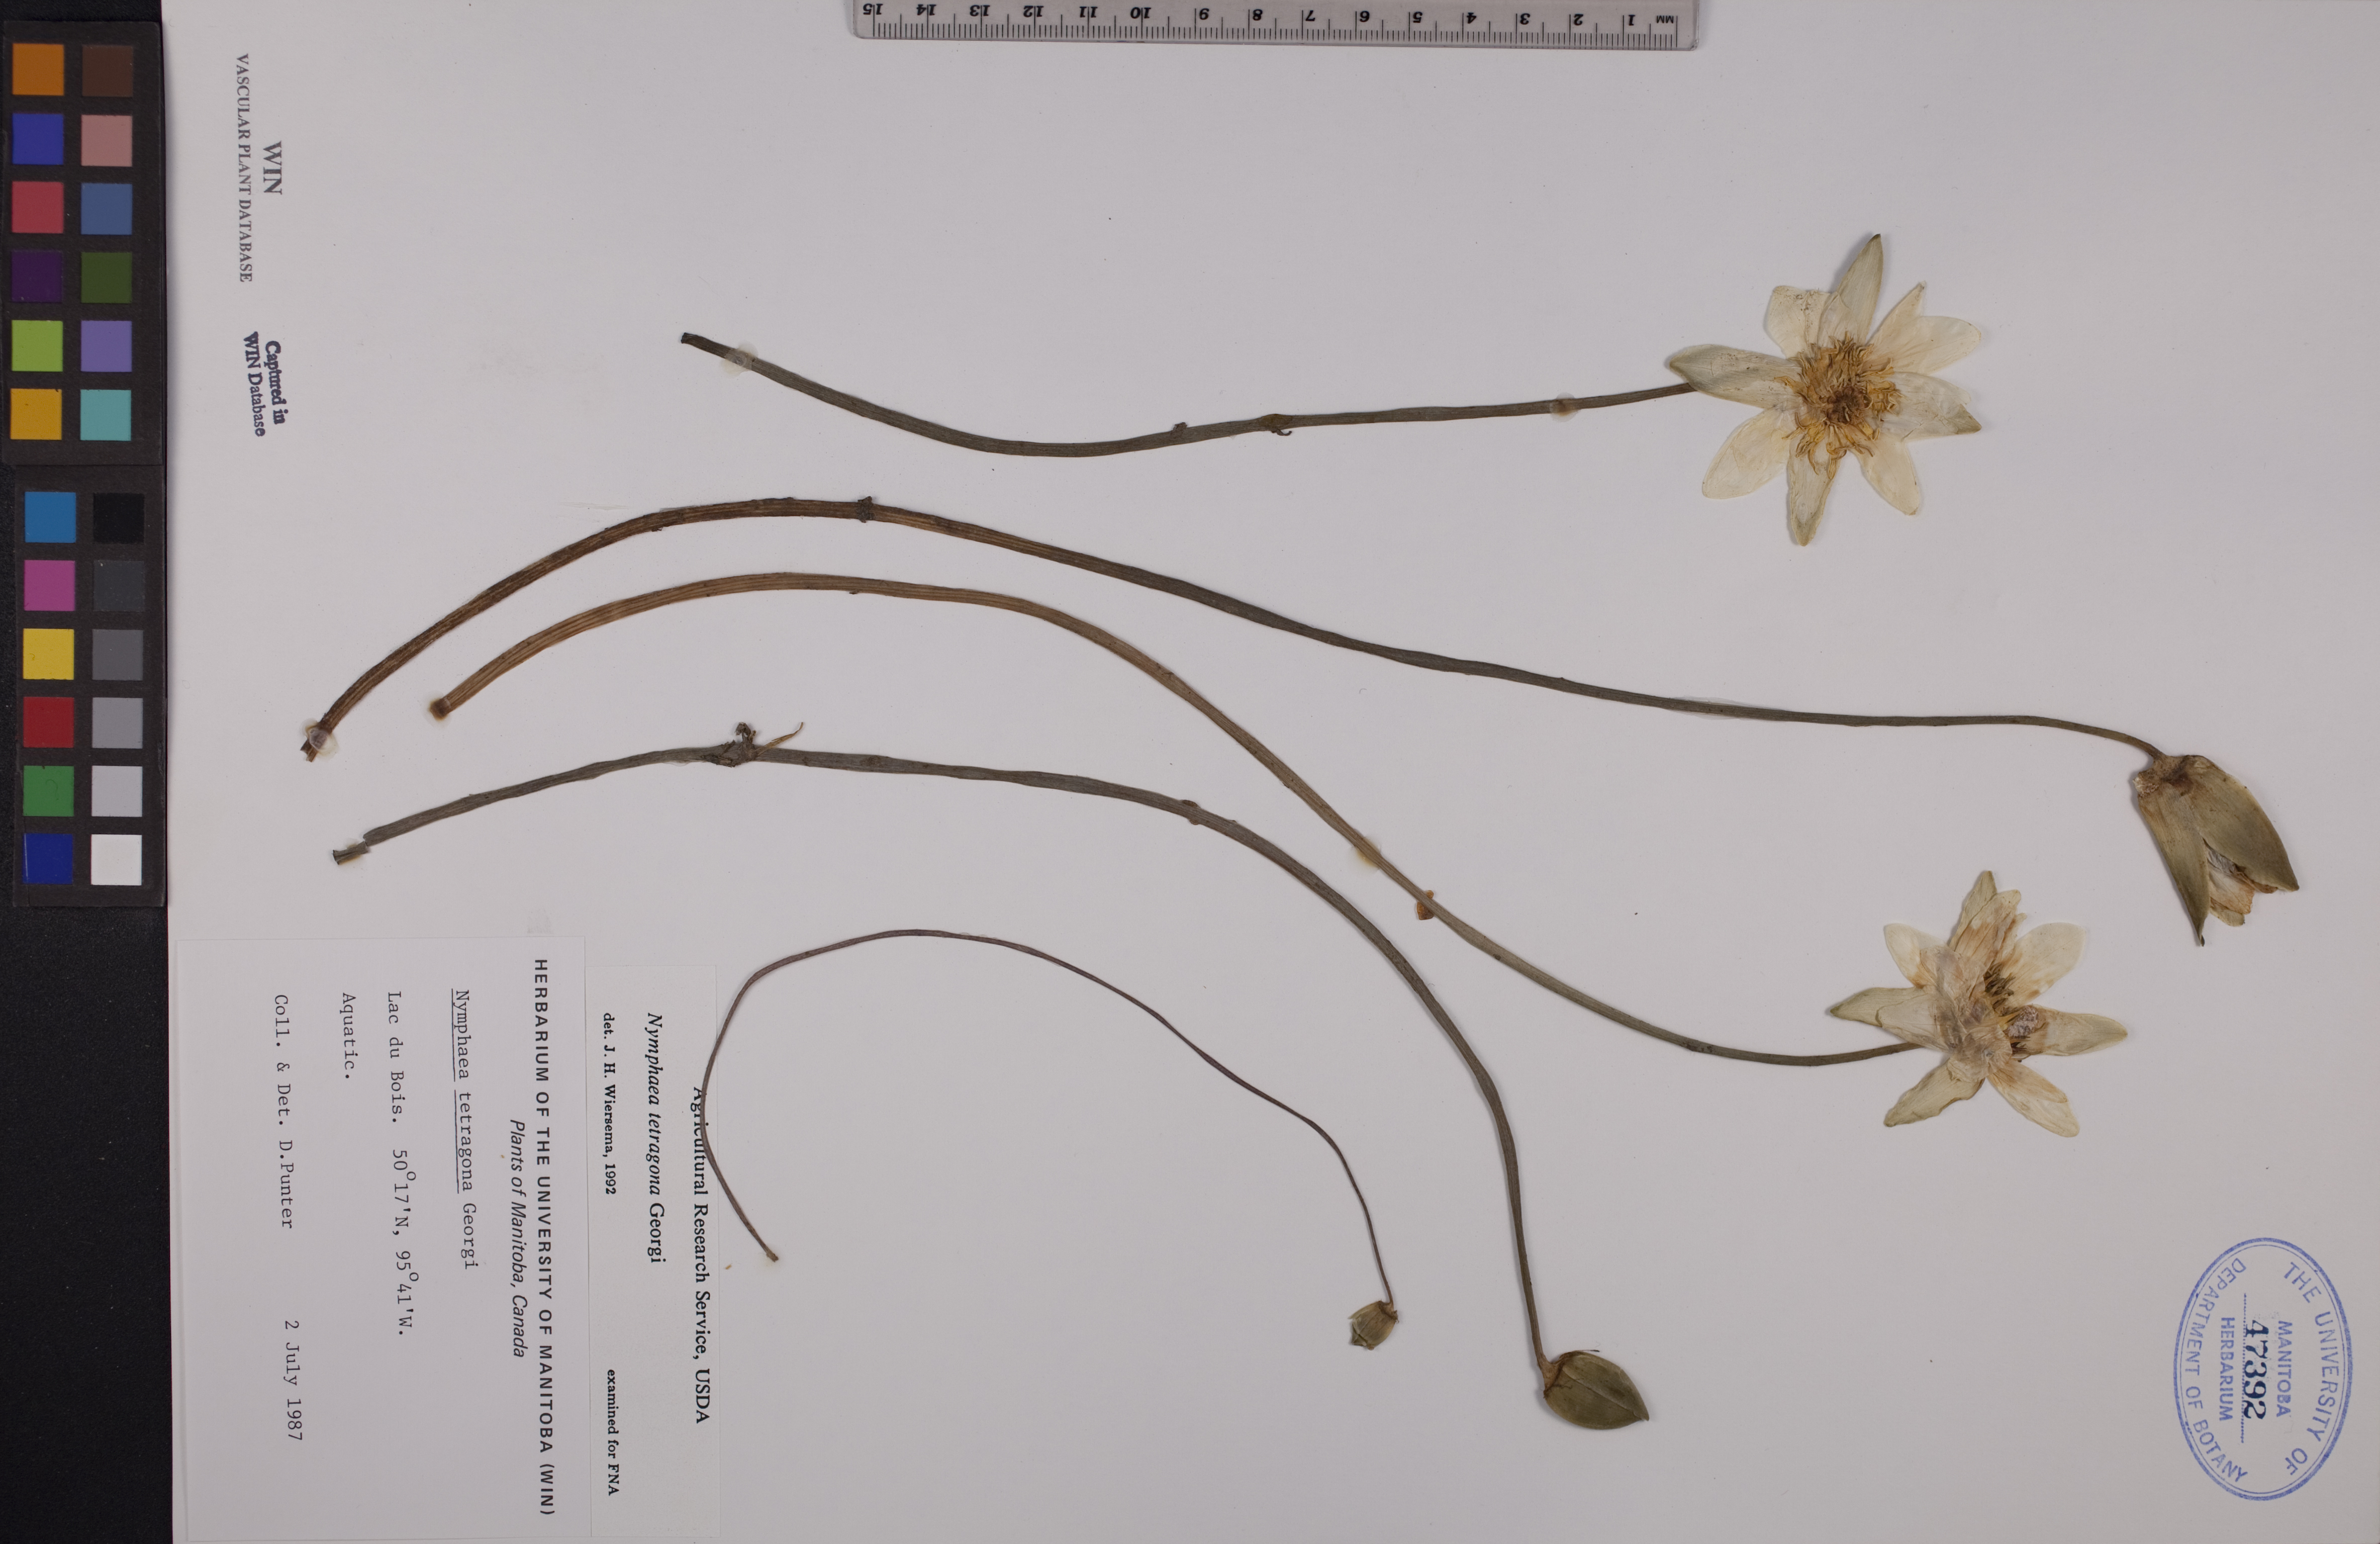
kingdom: Plantae
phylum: Tracheophyta
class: Magnoliopsida
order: Nymphaeales
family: Nymphaeaceae
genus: Nymphaea
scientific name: Nymphaea tetragona
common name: Pygmy water-lily
